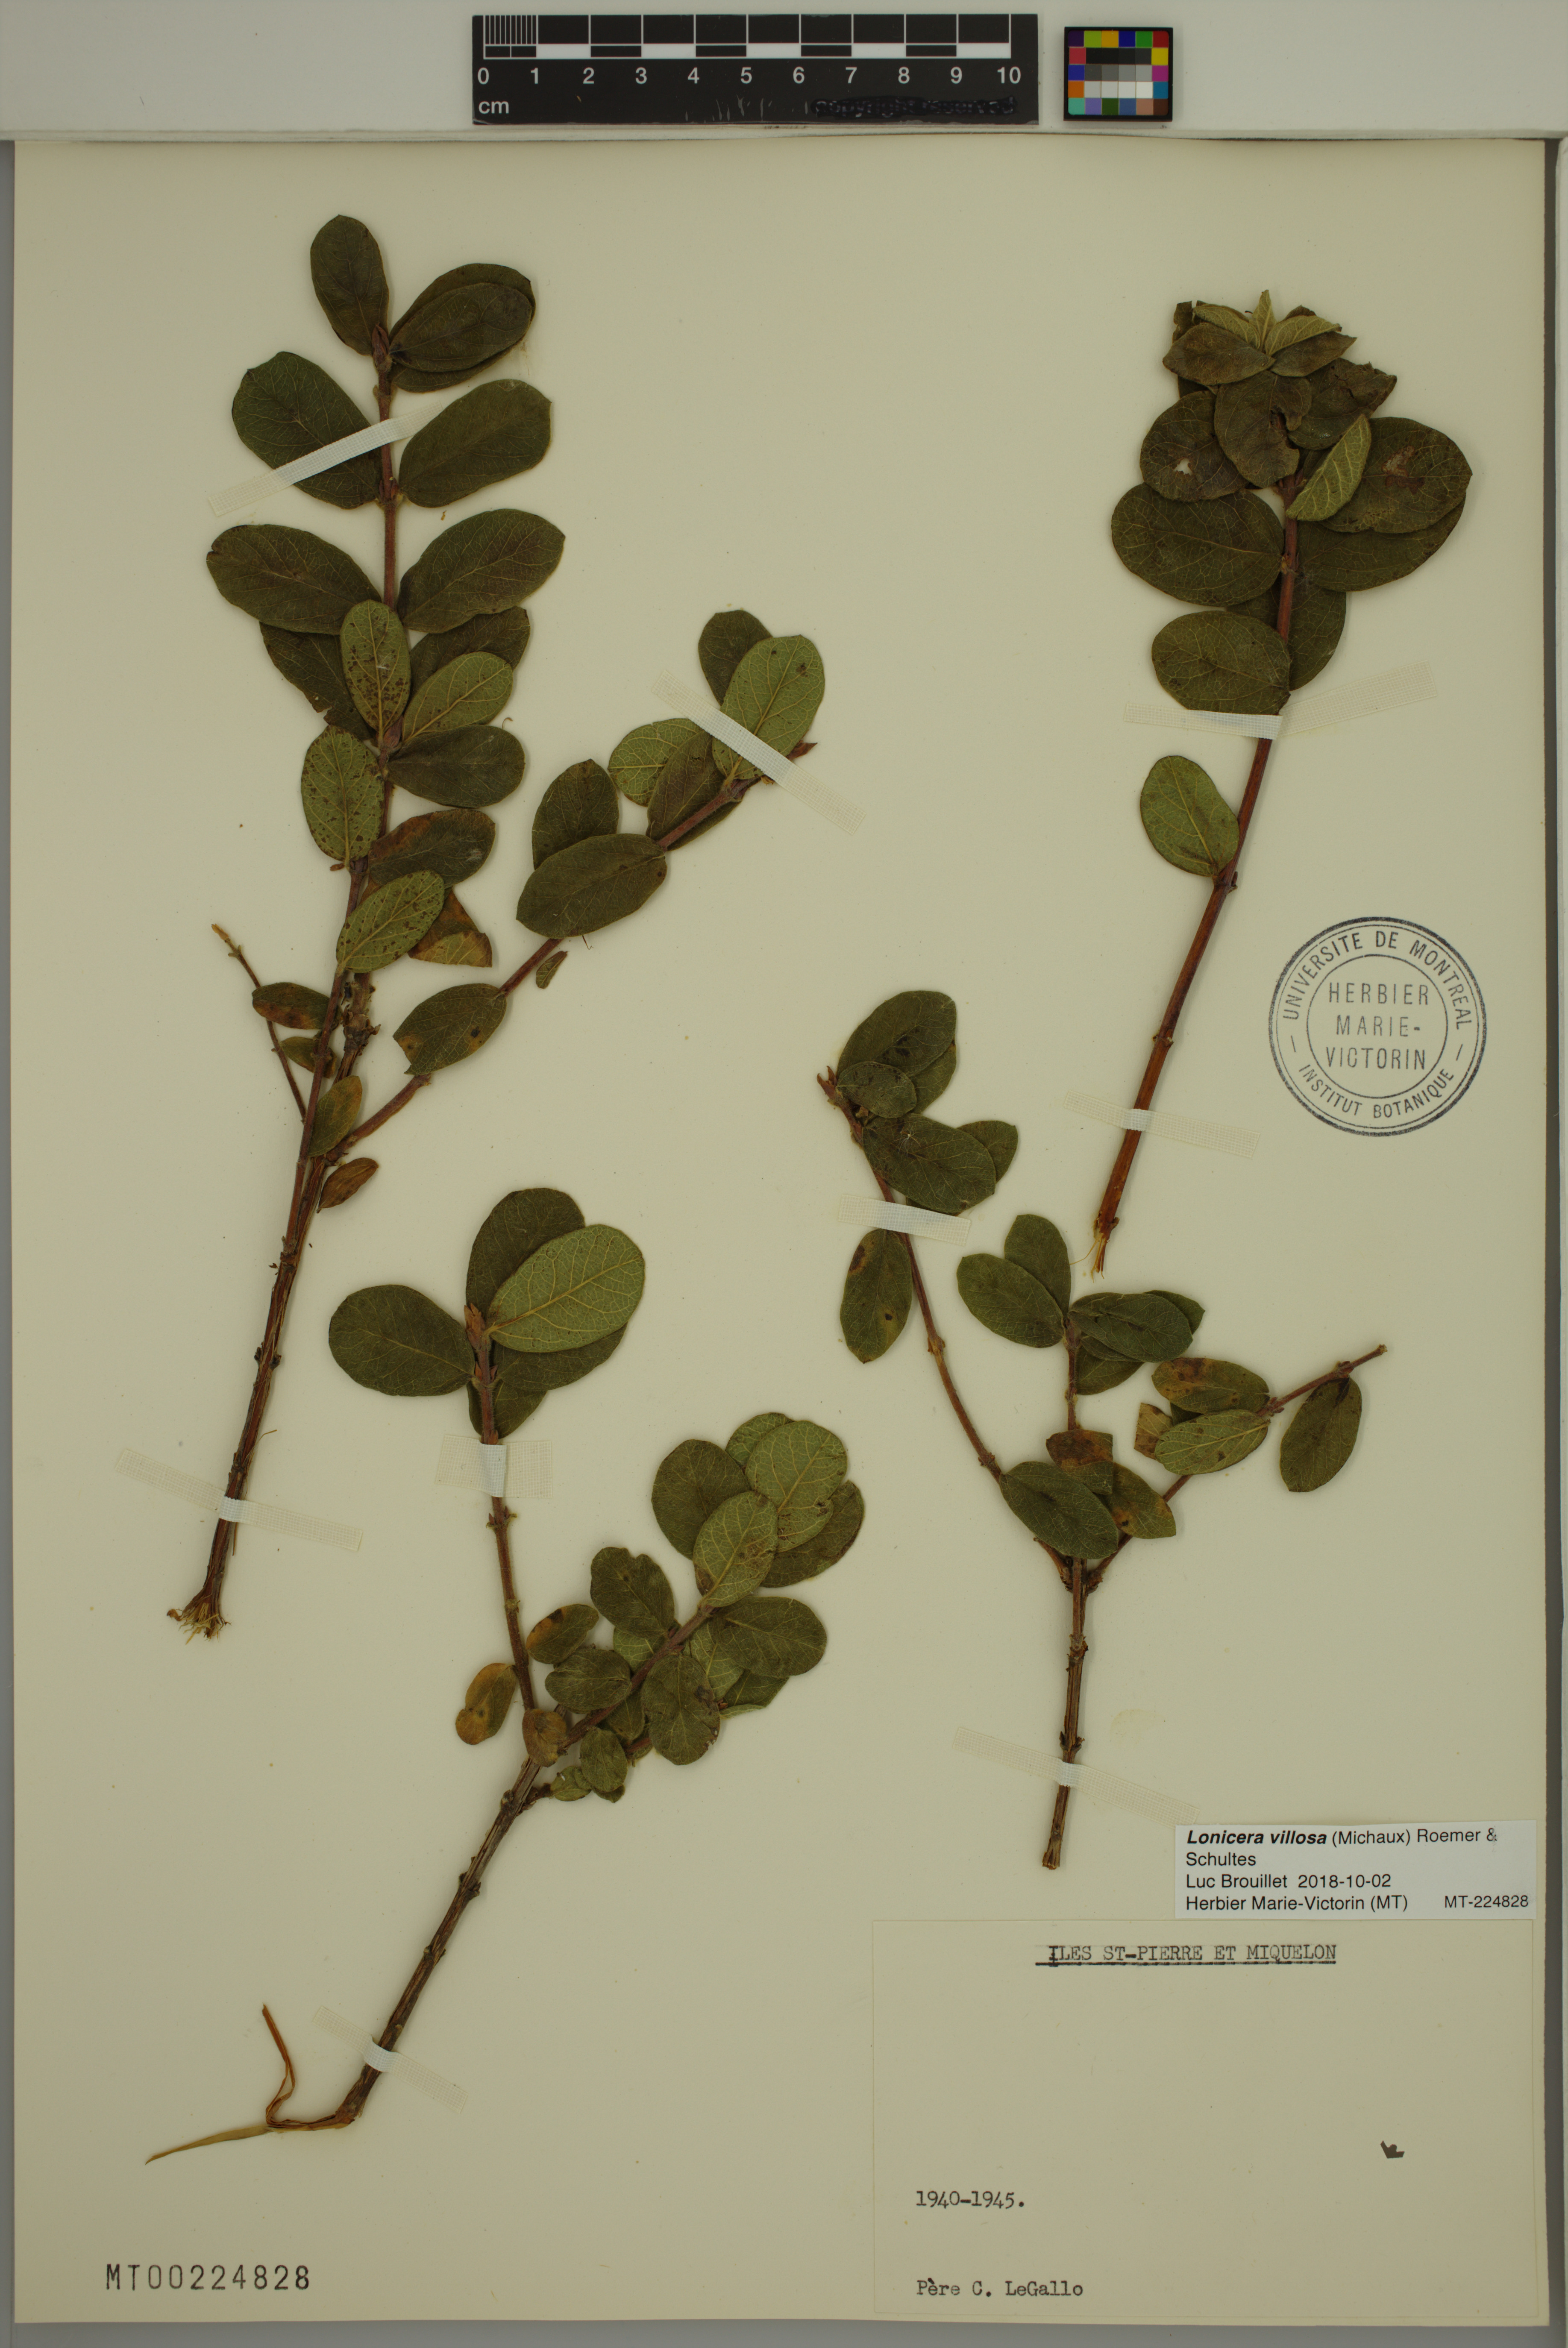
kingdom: Plantae
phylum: Tracheophyta
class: Magnoliopsida
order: Dipsacales
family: Caprifoliaceae
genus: Lonicera
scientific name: Lonicera villosa
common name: Mountain fly-honeysuckle
